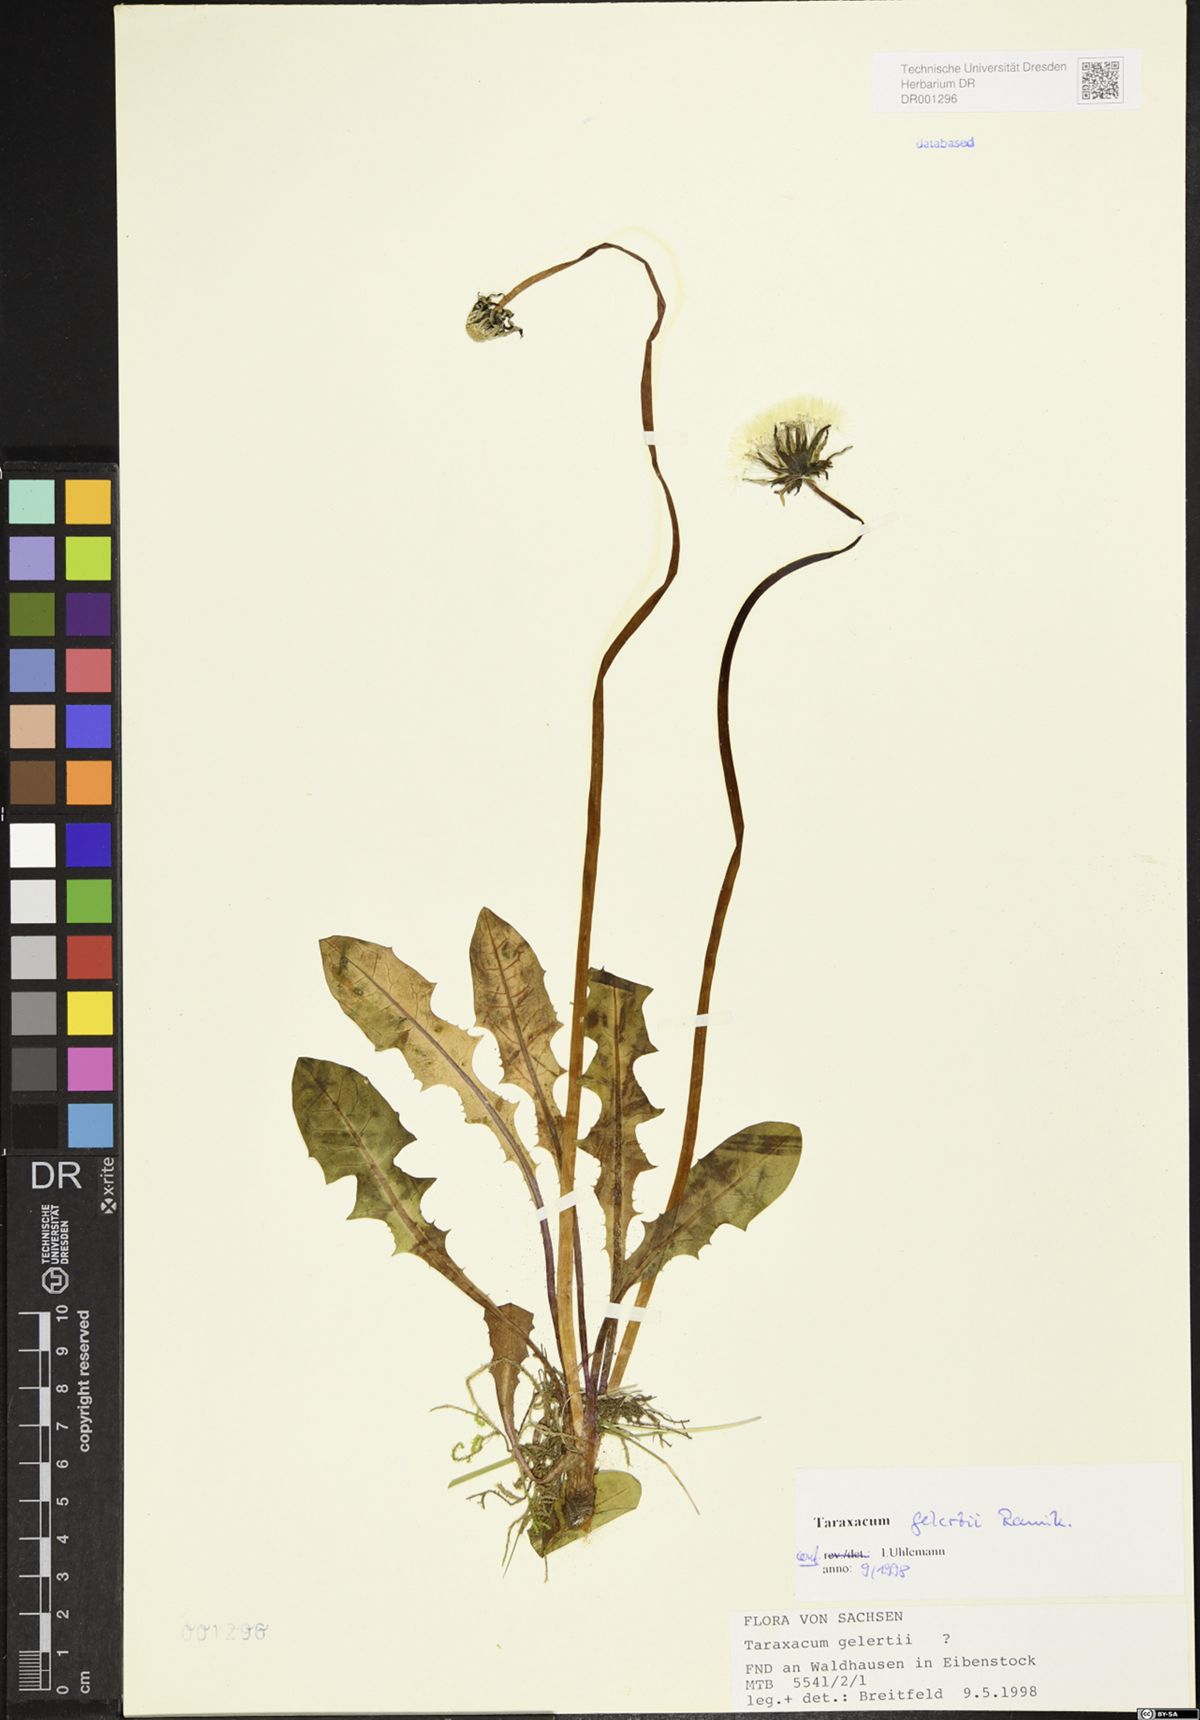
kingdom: Plantae
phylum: Tracheophyta
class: Magnoliopsida
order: Asterales
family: Asteraceae
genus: Taraxacum
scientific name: Taraxacum gelertii
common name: Gelert's dandelion
